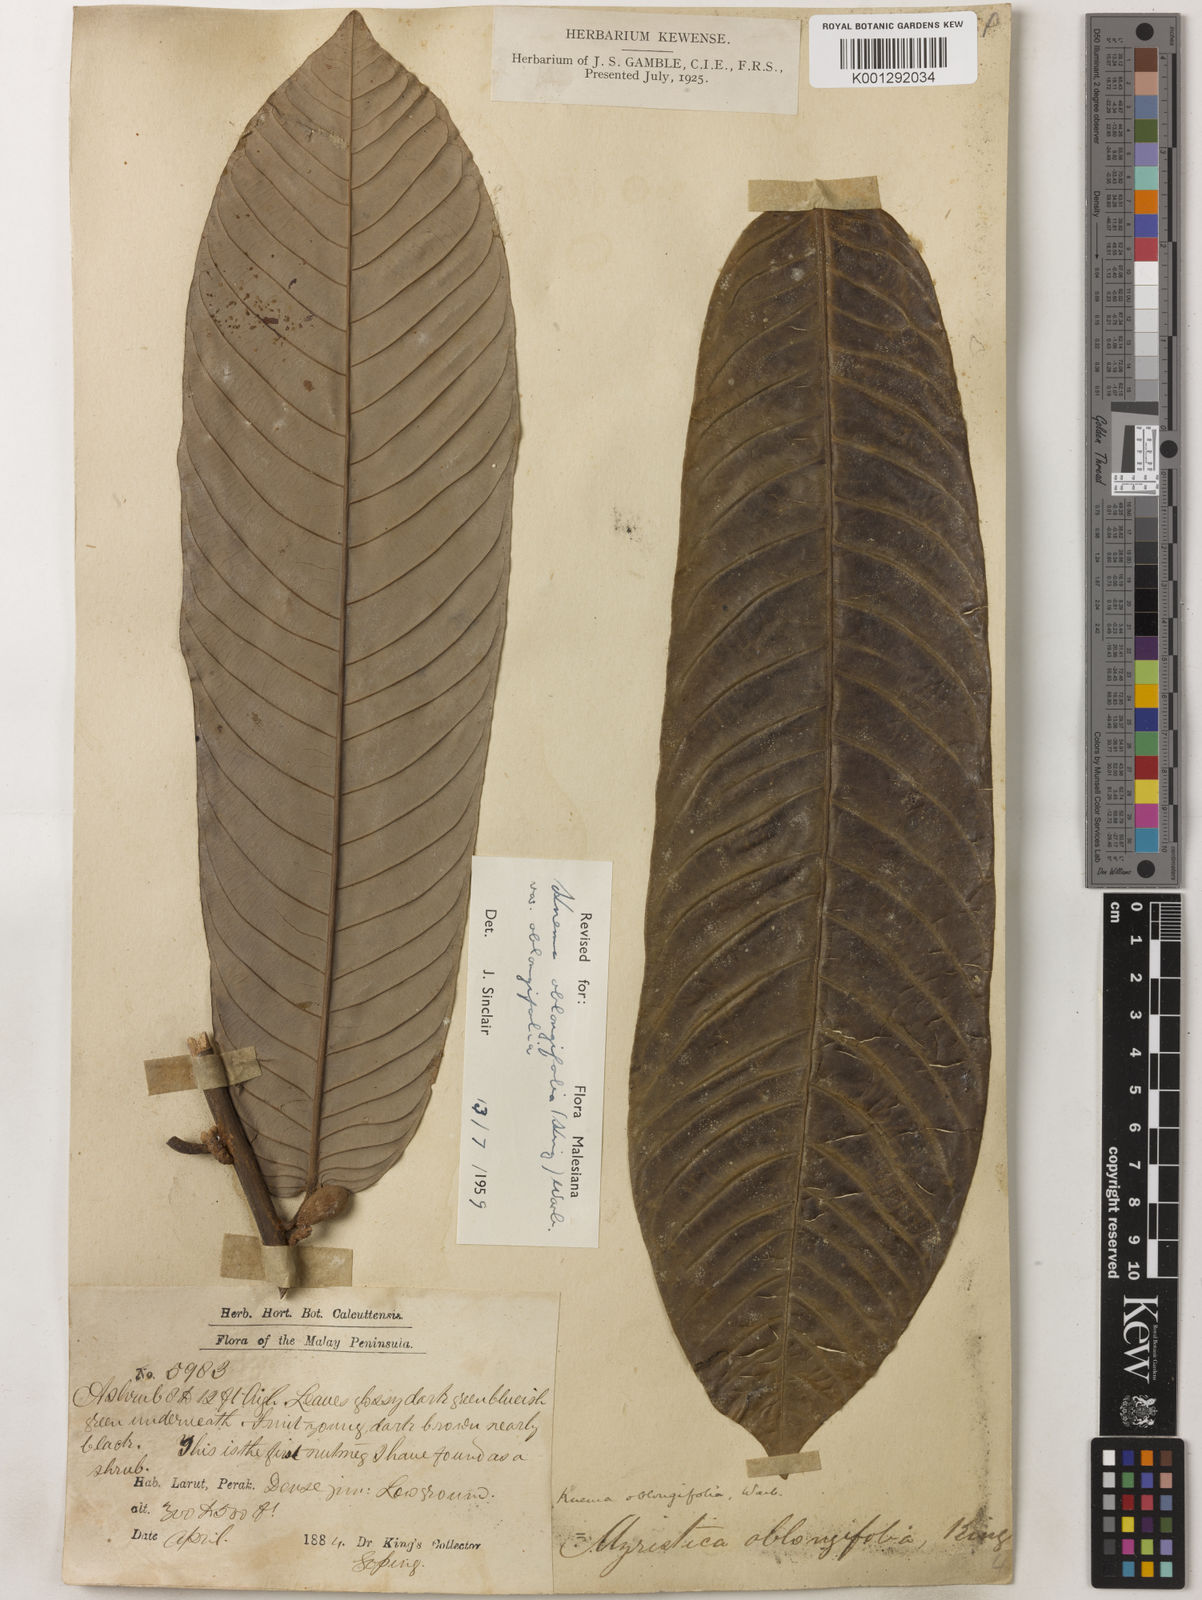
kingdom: Plantae
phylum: Tracheophyta
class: Magnoliopsida
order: Magnoliales
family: Myristicaceae
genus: Knema
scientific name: Knema oblongifolia
